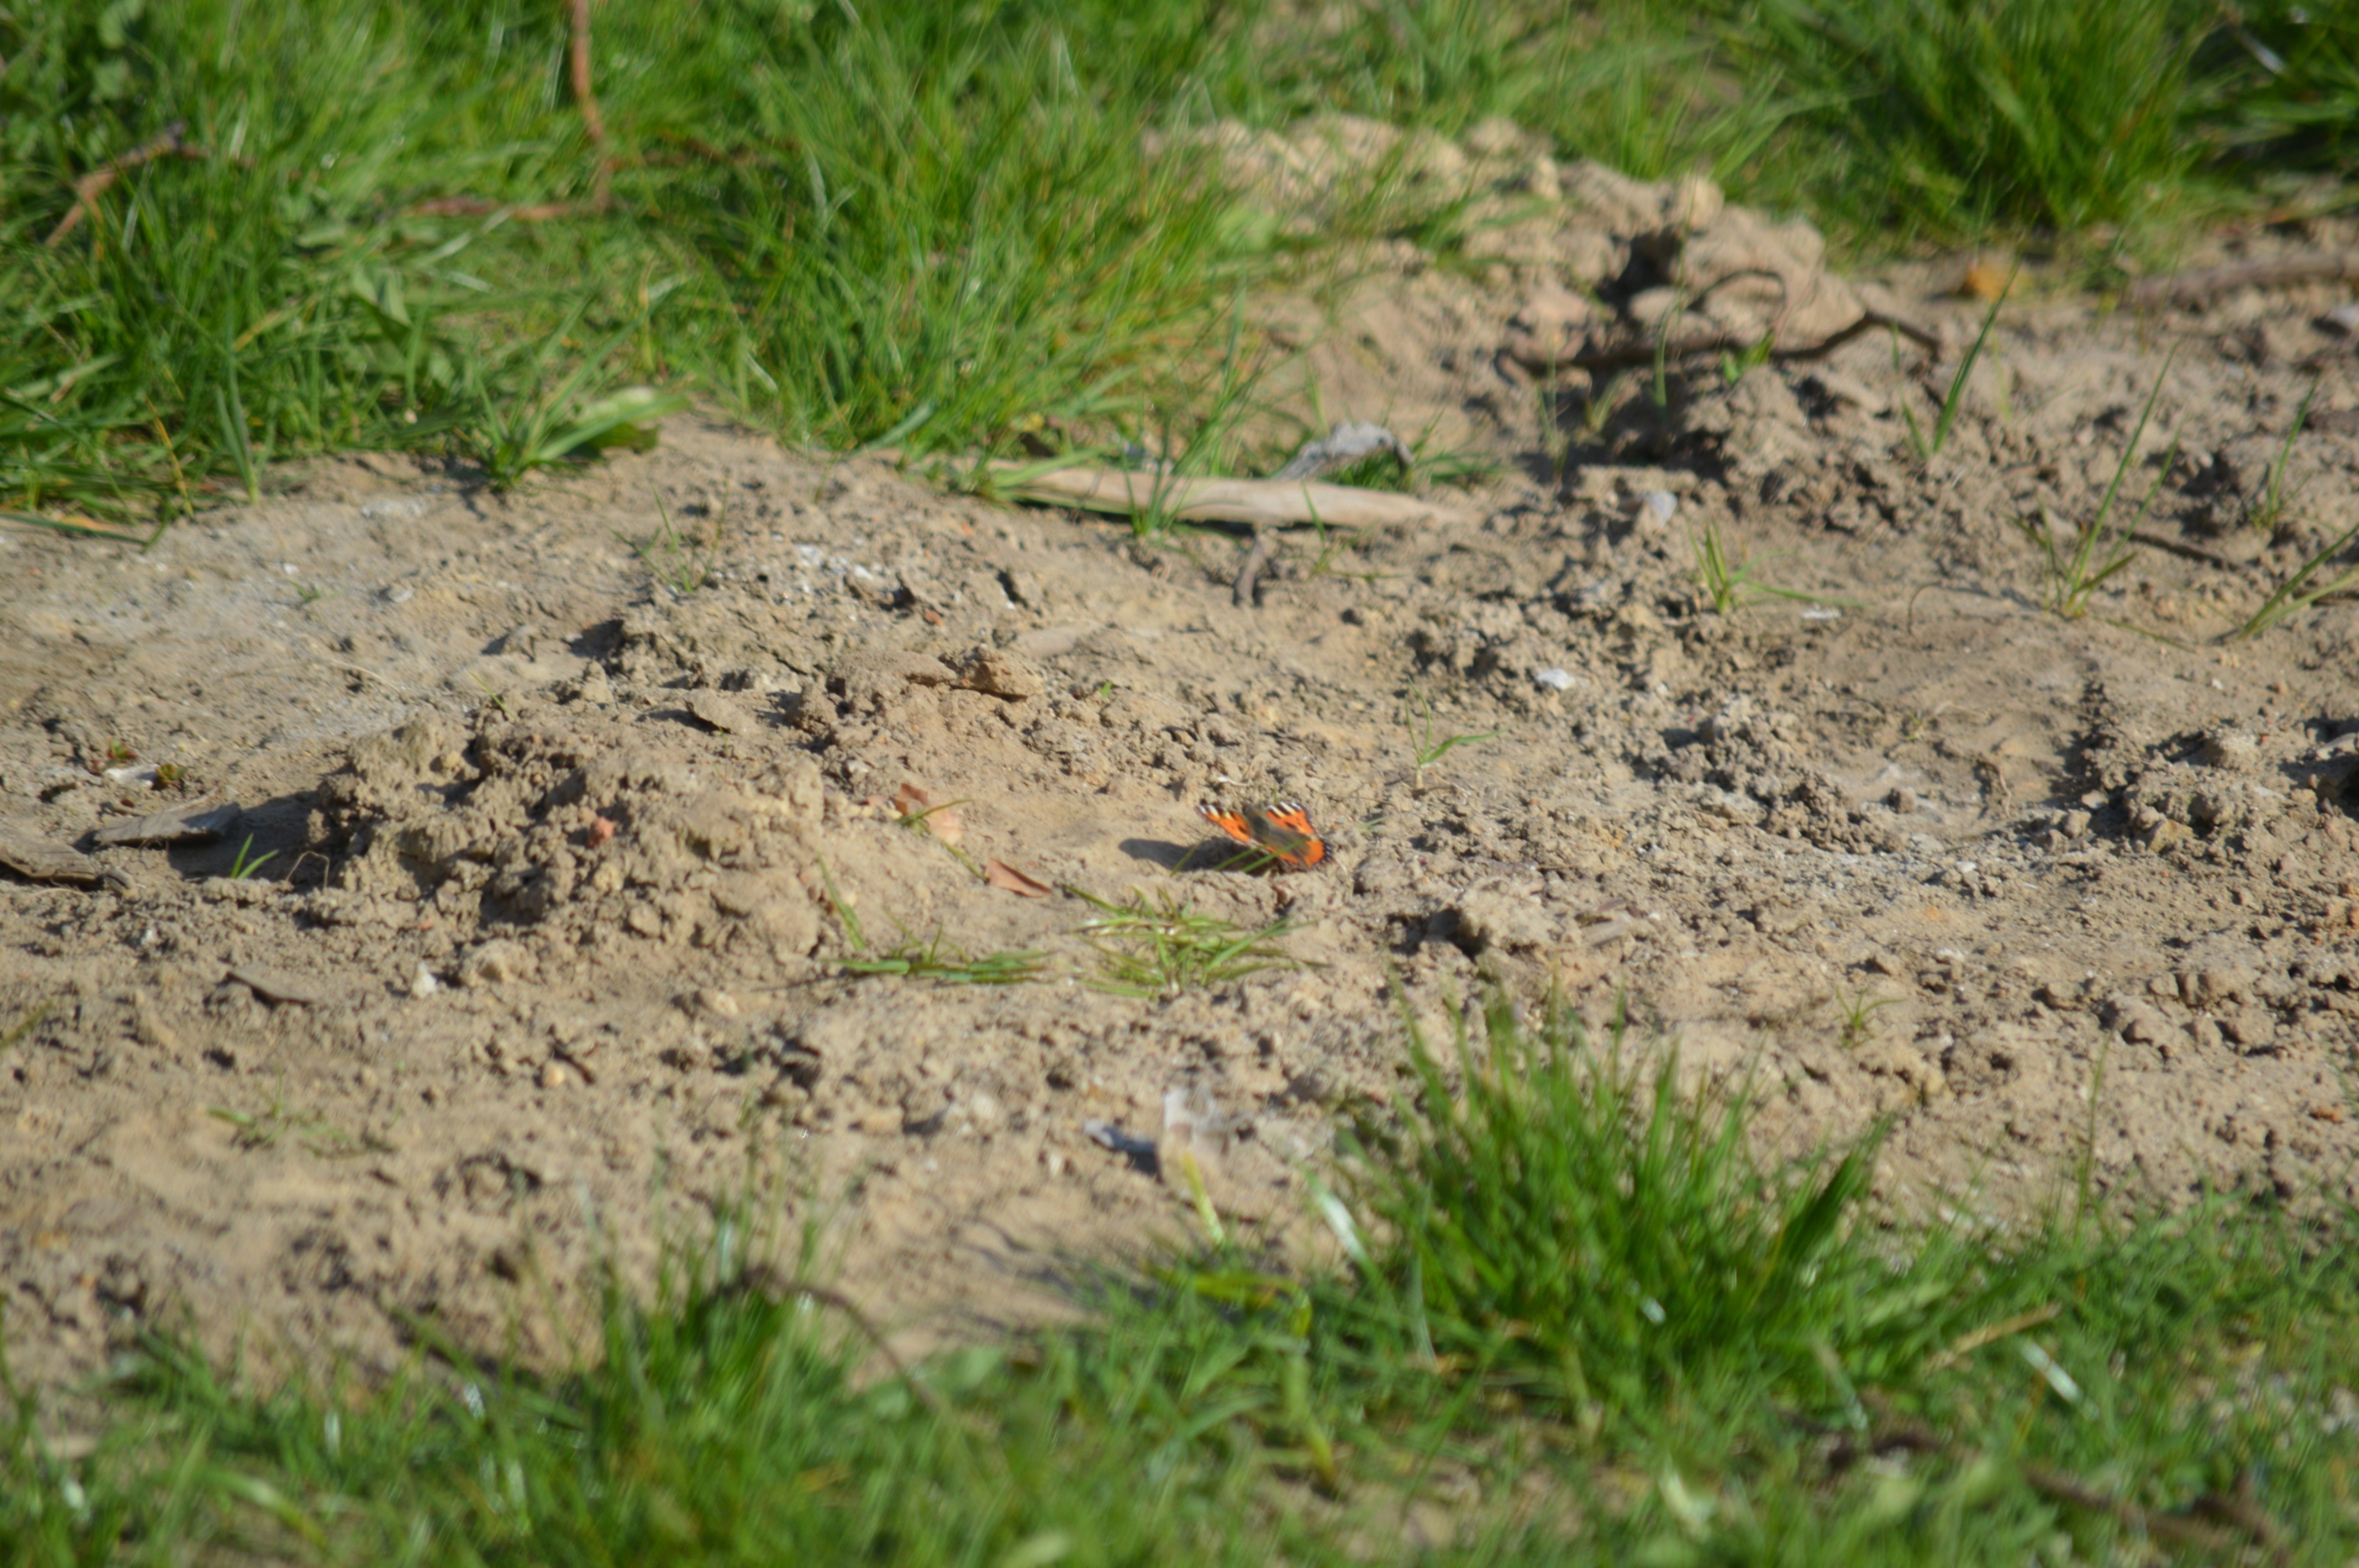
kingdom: Animalia
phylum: Arthropoda
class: Insecta
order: Lepidoptera
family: Nymphalidae
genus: Aglais
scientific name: Aglais urticae
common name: Nældens takvinge
